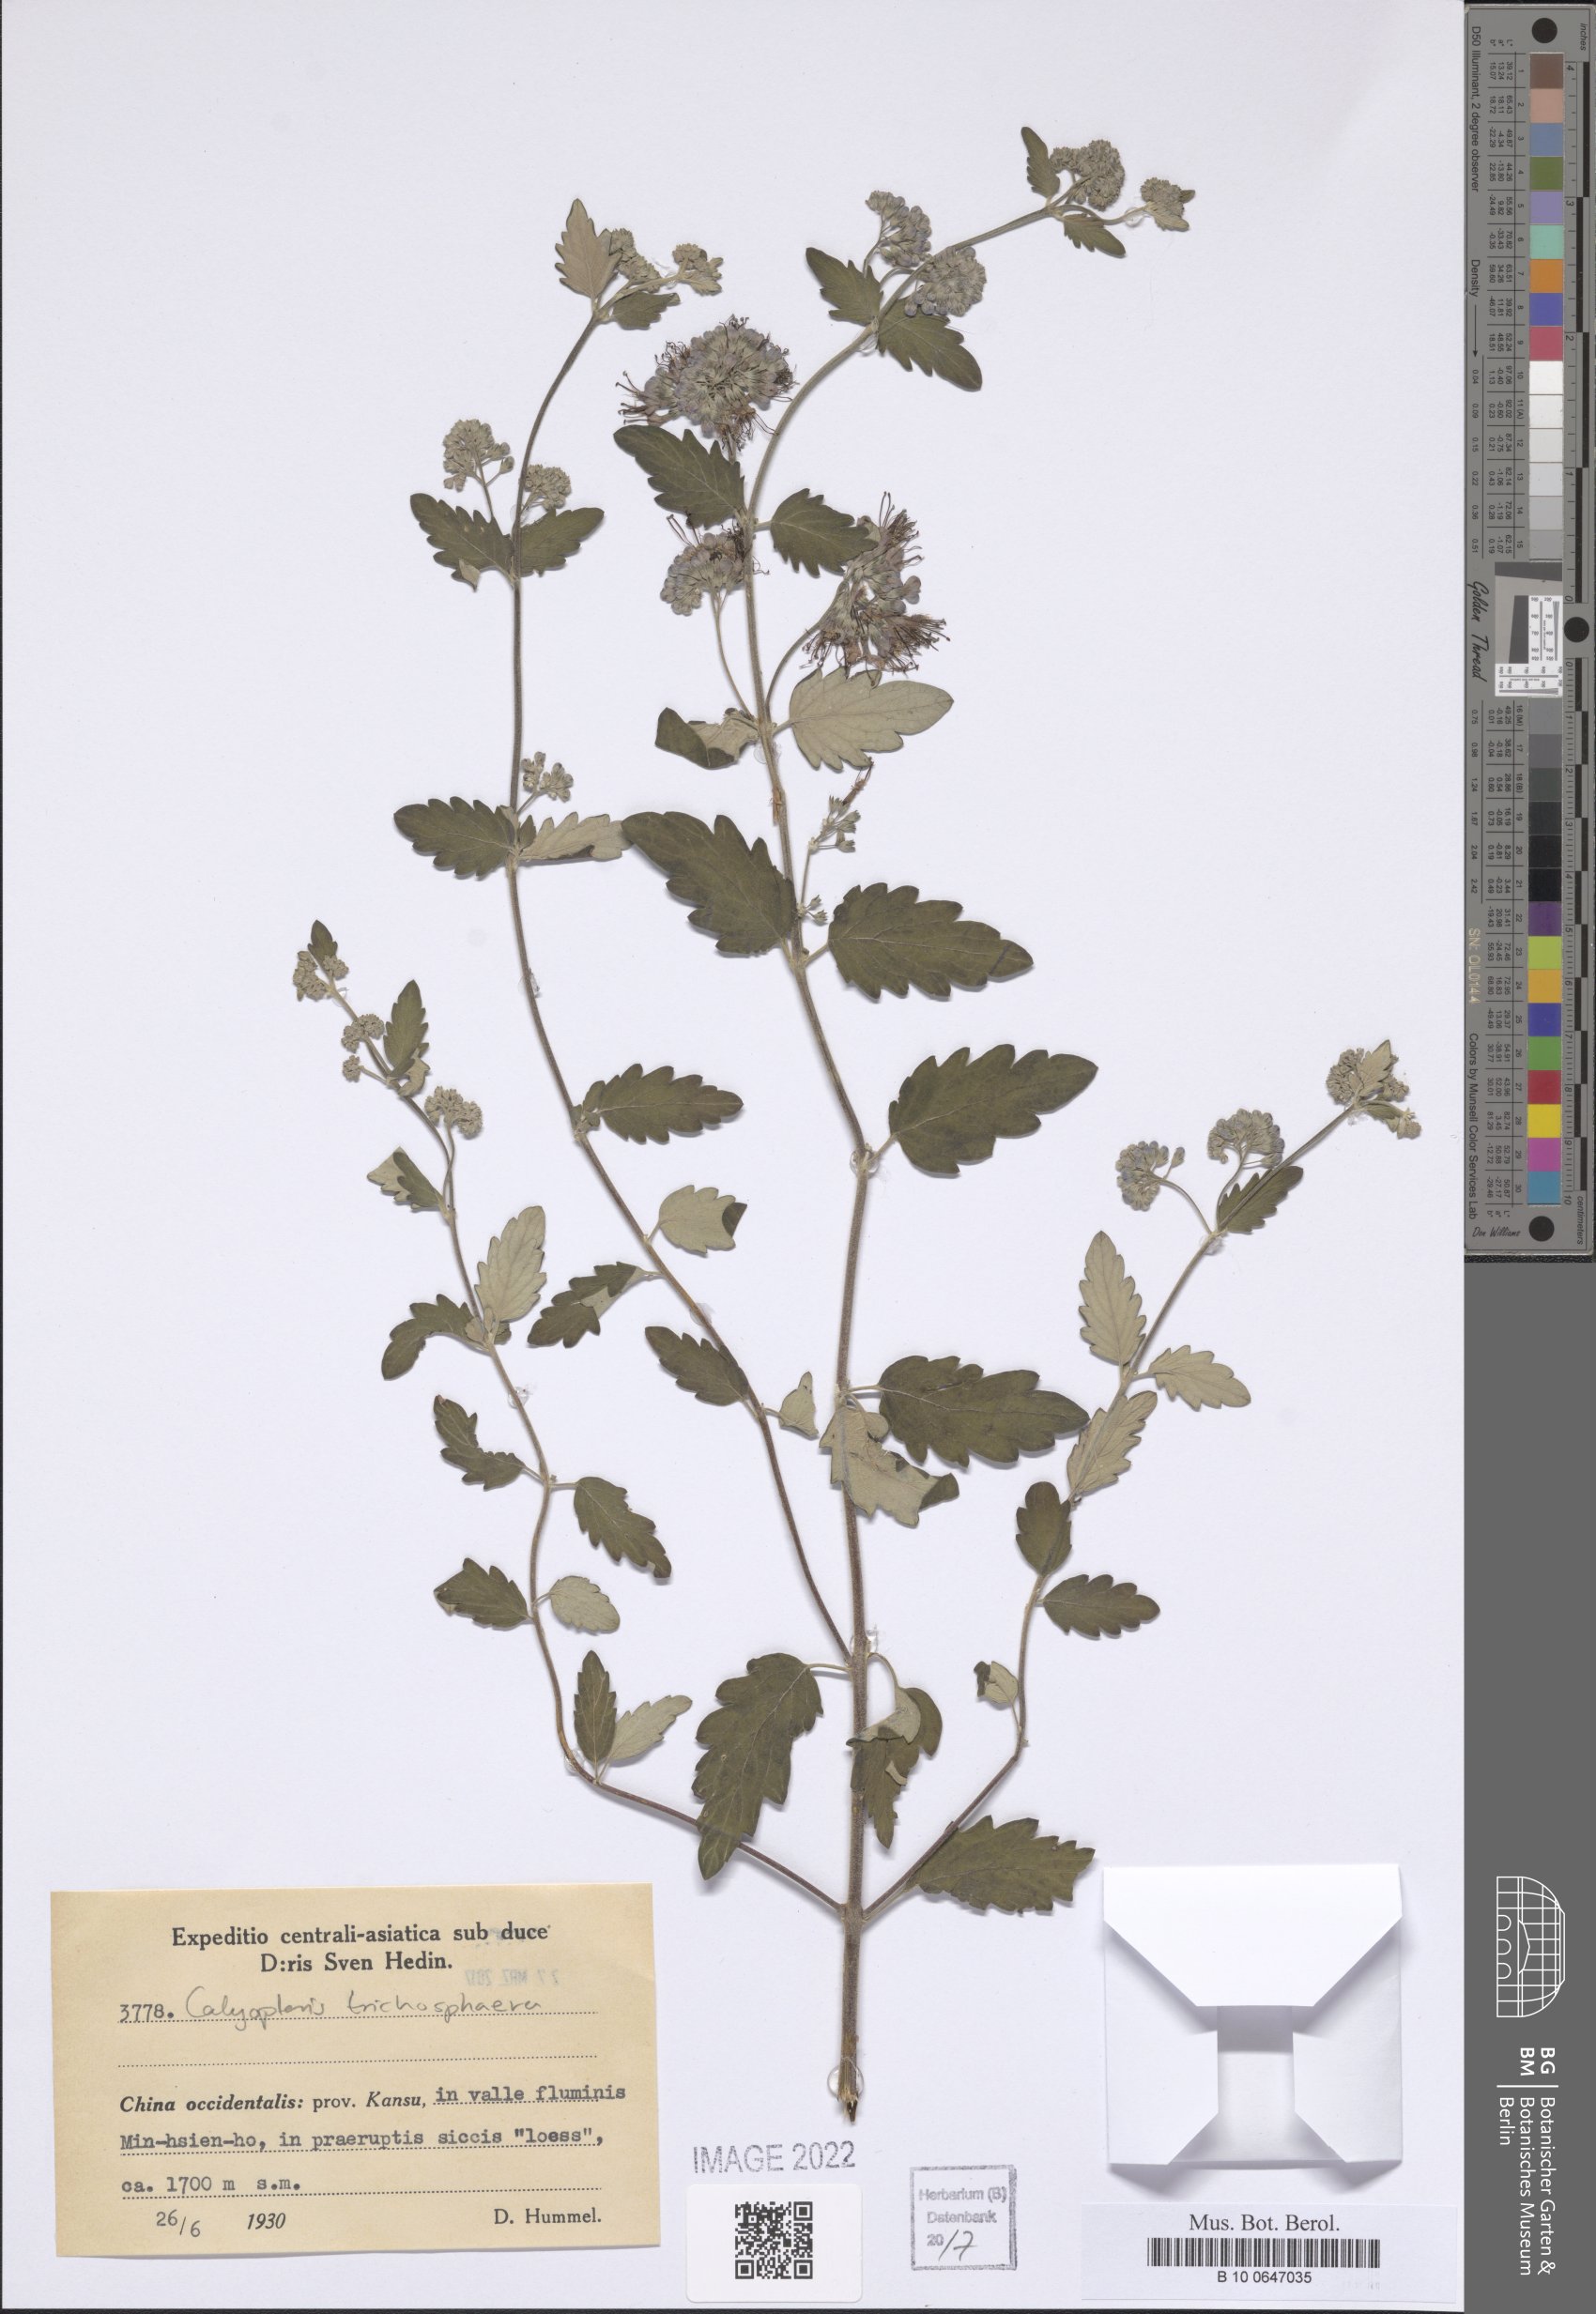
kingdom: Plantae
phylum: Tracheophyta
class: Magnoliopsida
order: Lamiales
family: Lamiaceae
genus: Caryopteris
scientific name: Caryopteris trichosphaera
